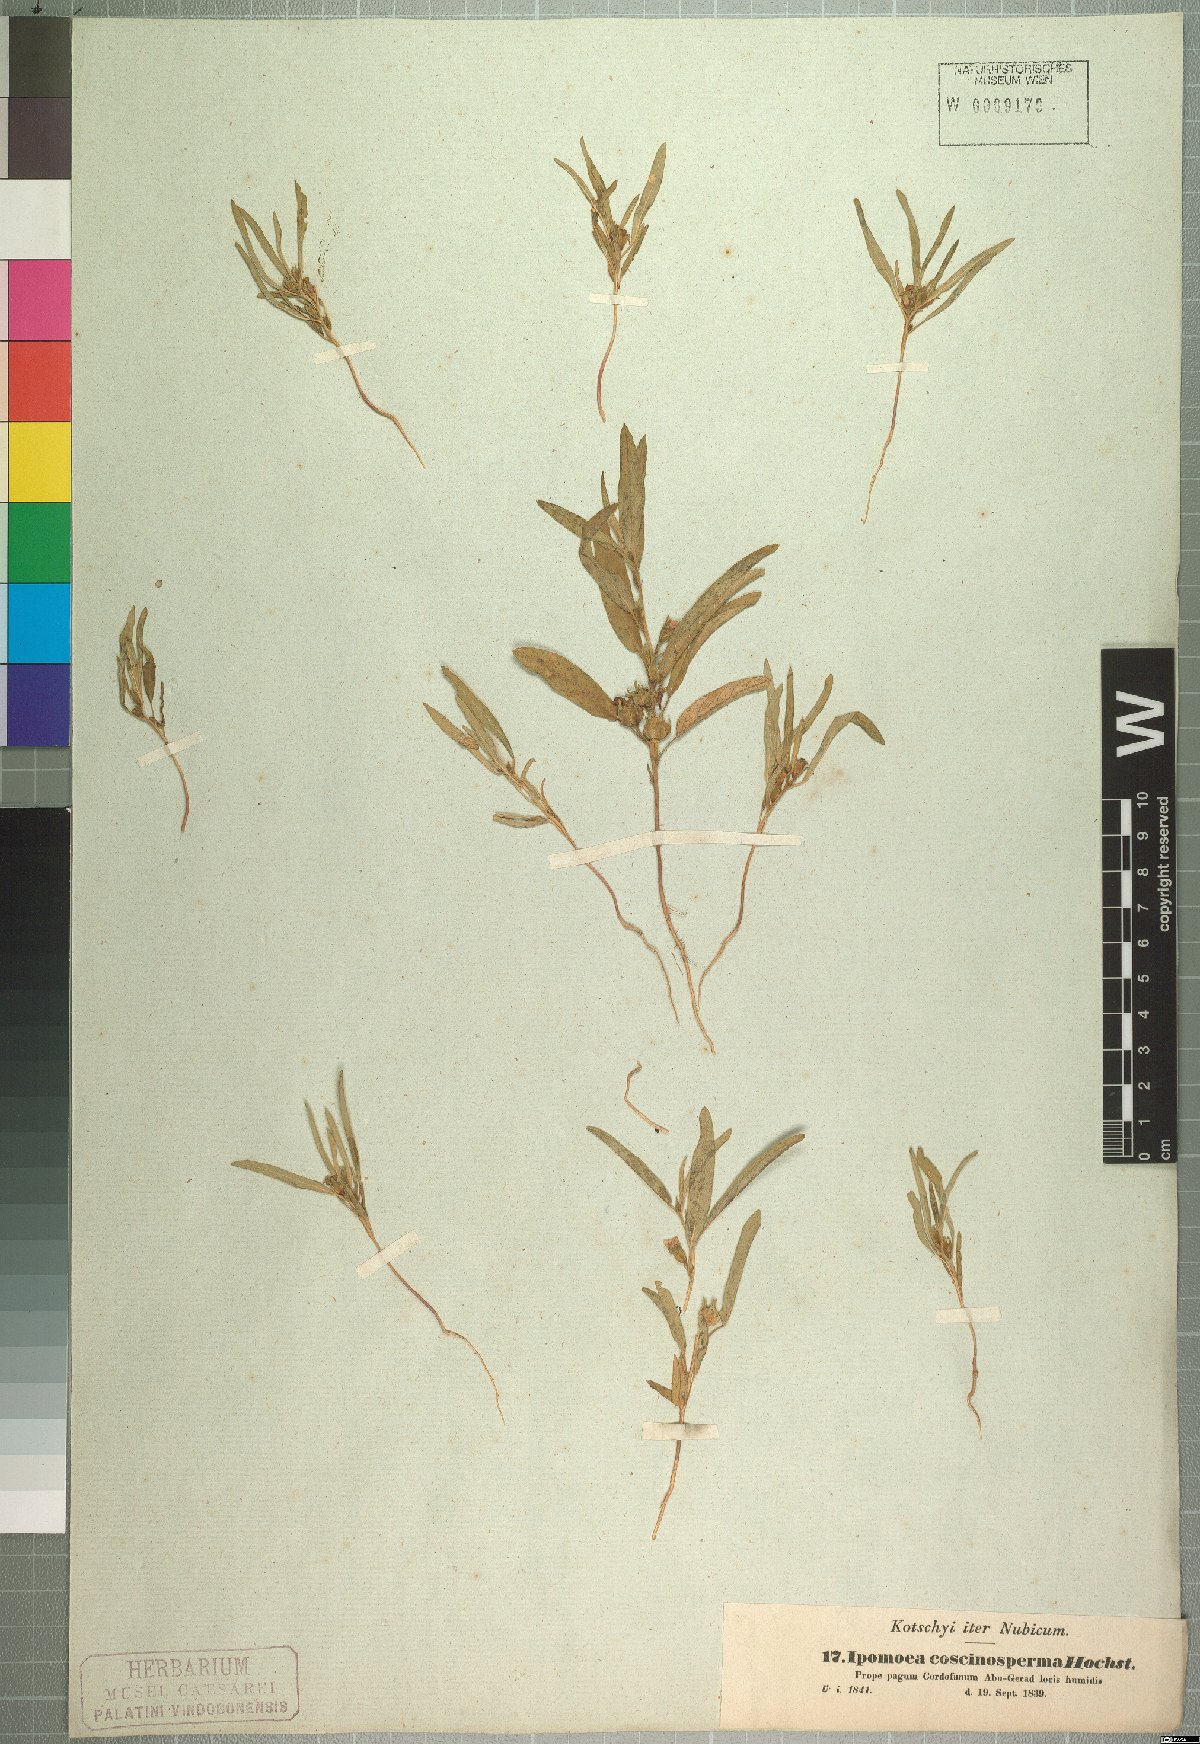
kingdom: Plantae
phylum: Tracheophyta
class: Magnoliopsida
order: Solanales
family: Convolvulaceae
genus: Ipomoea
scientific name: Ipomoea coscinosperma
